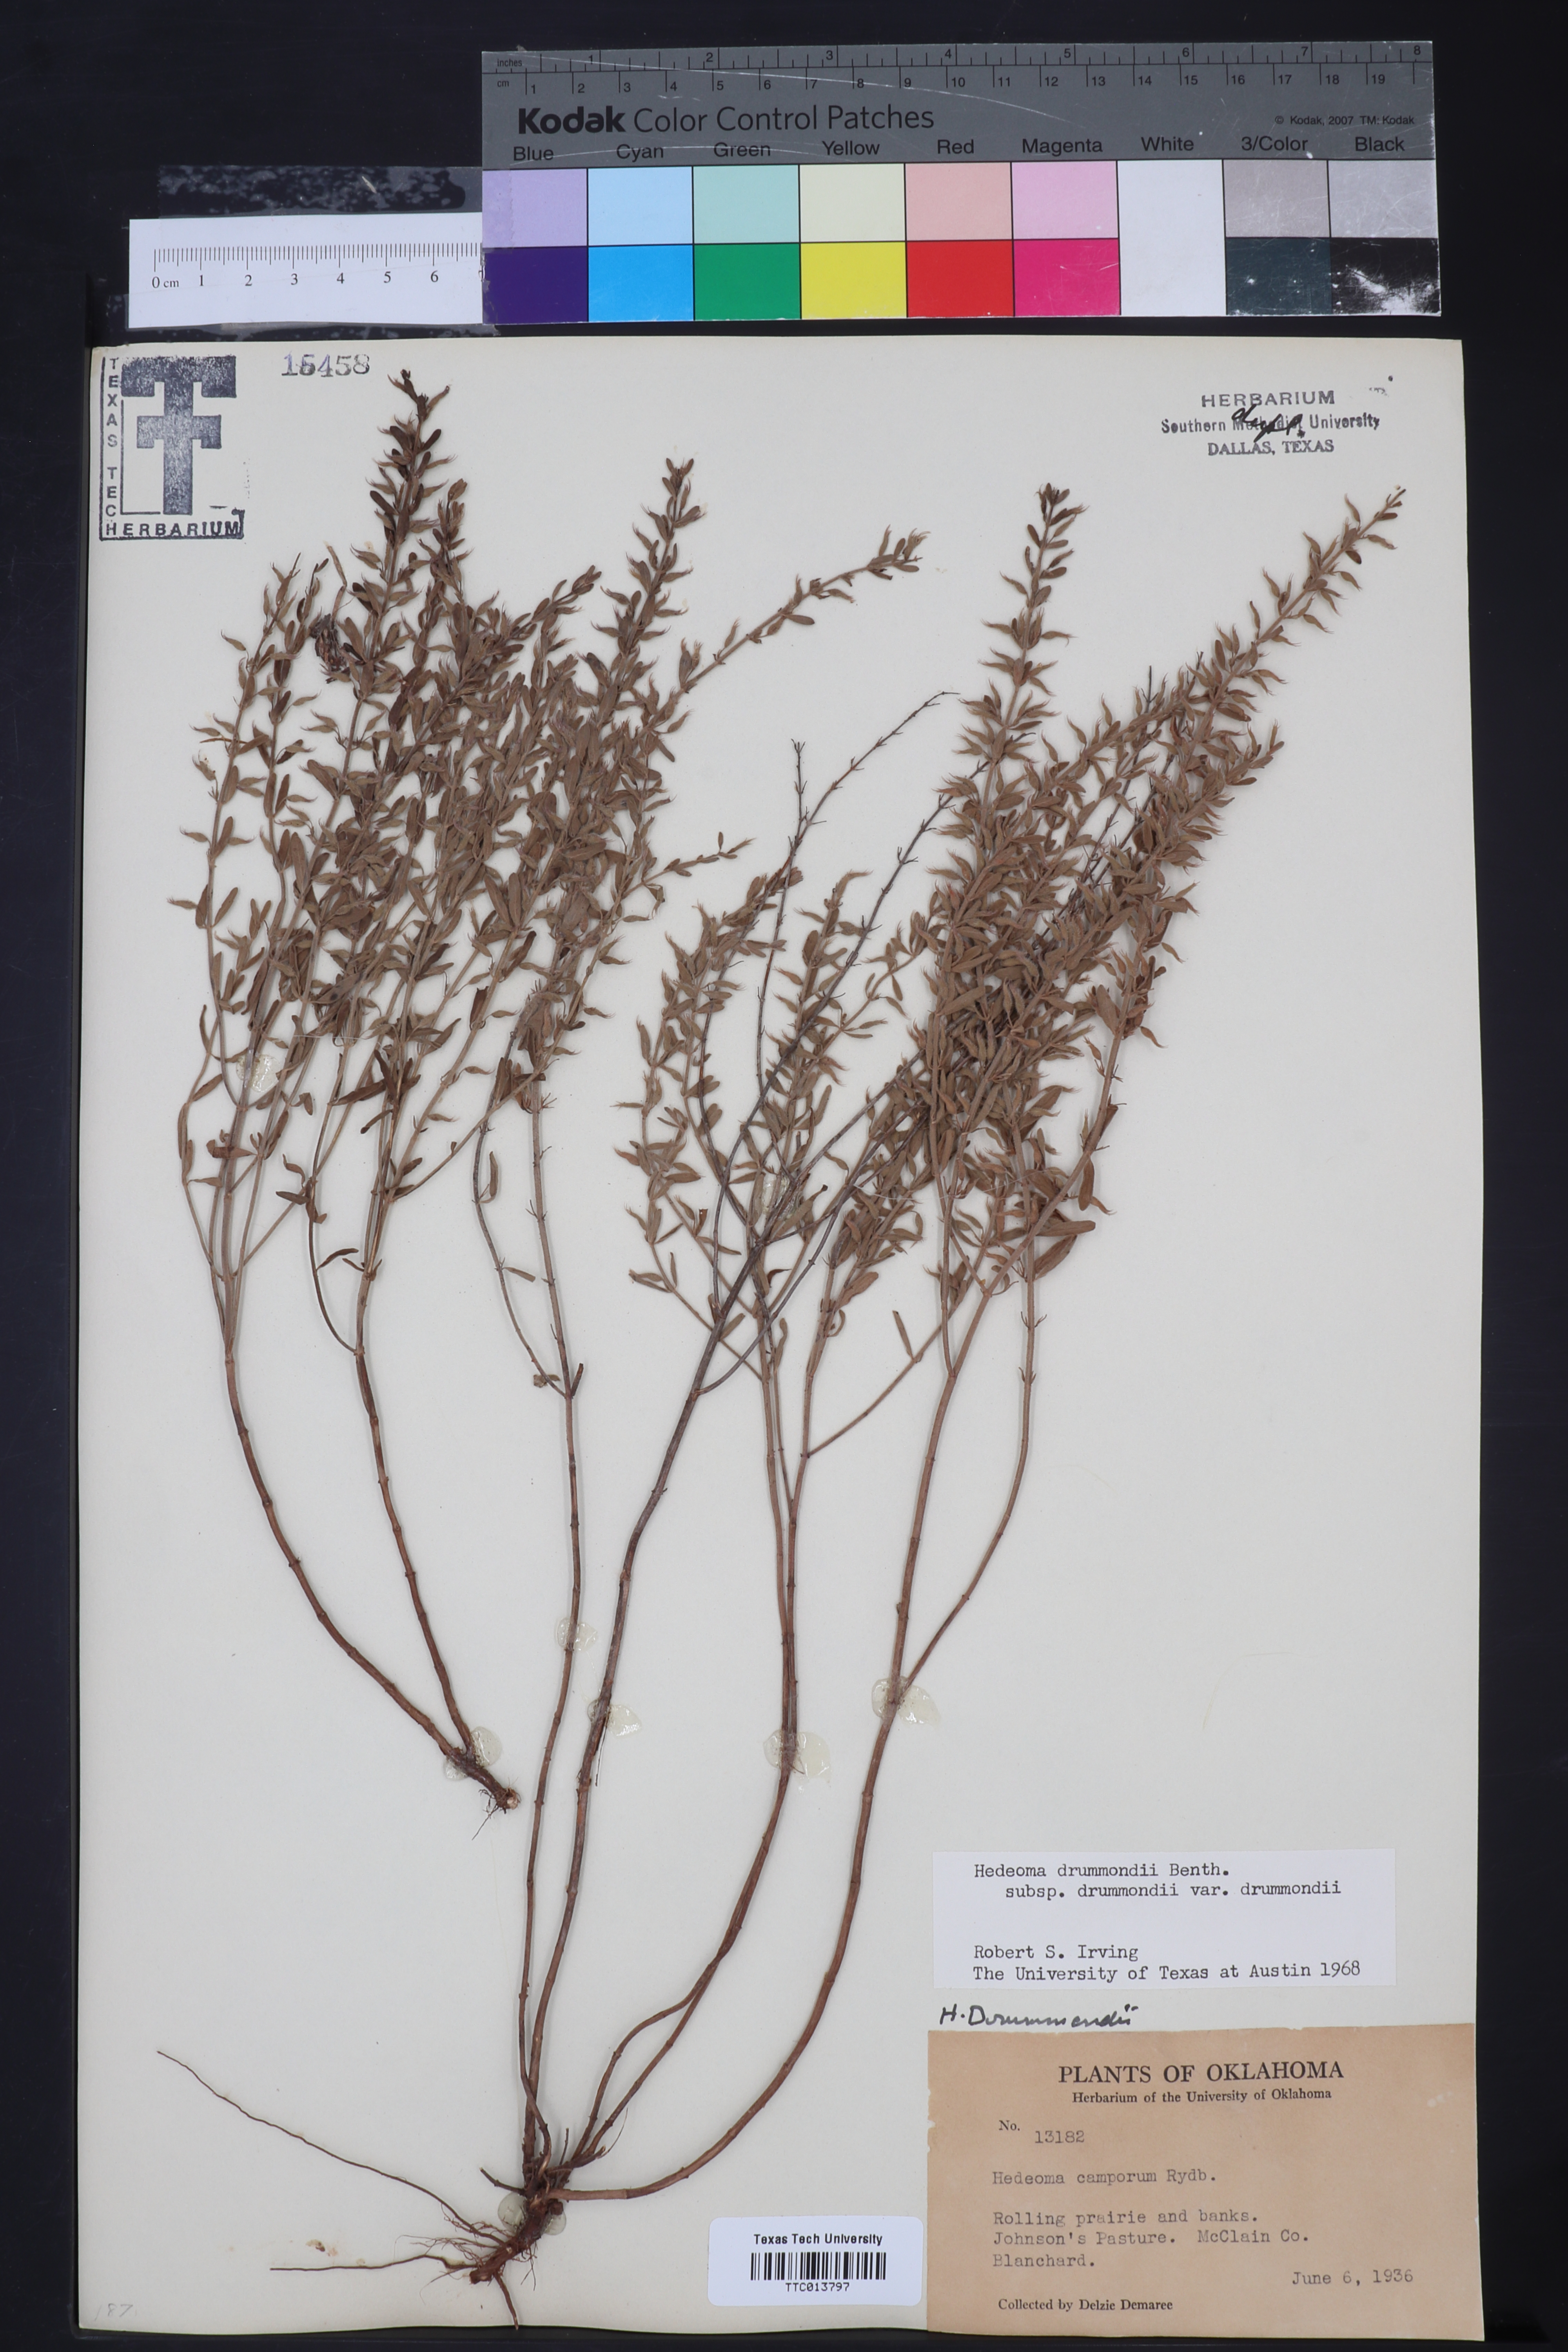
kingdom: Plantae
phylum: Tracheophyta
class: Magnoliopsida
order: Lamiales
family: Lamiaceae
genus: Hedeoma
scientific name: Hedeoma drummondii
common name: New mexico pennyroyal
